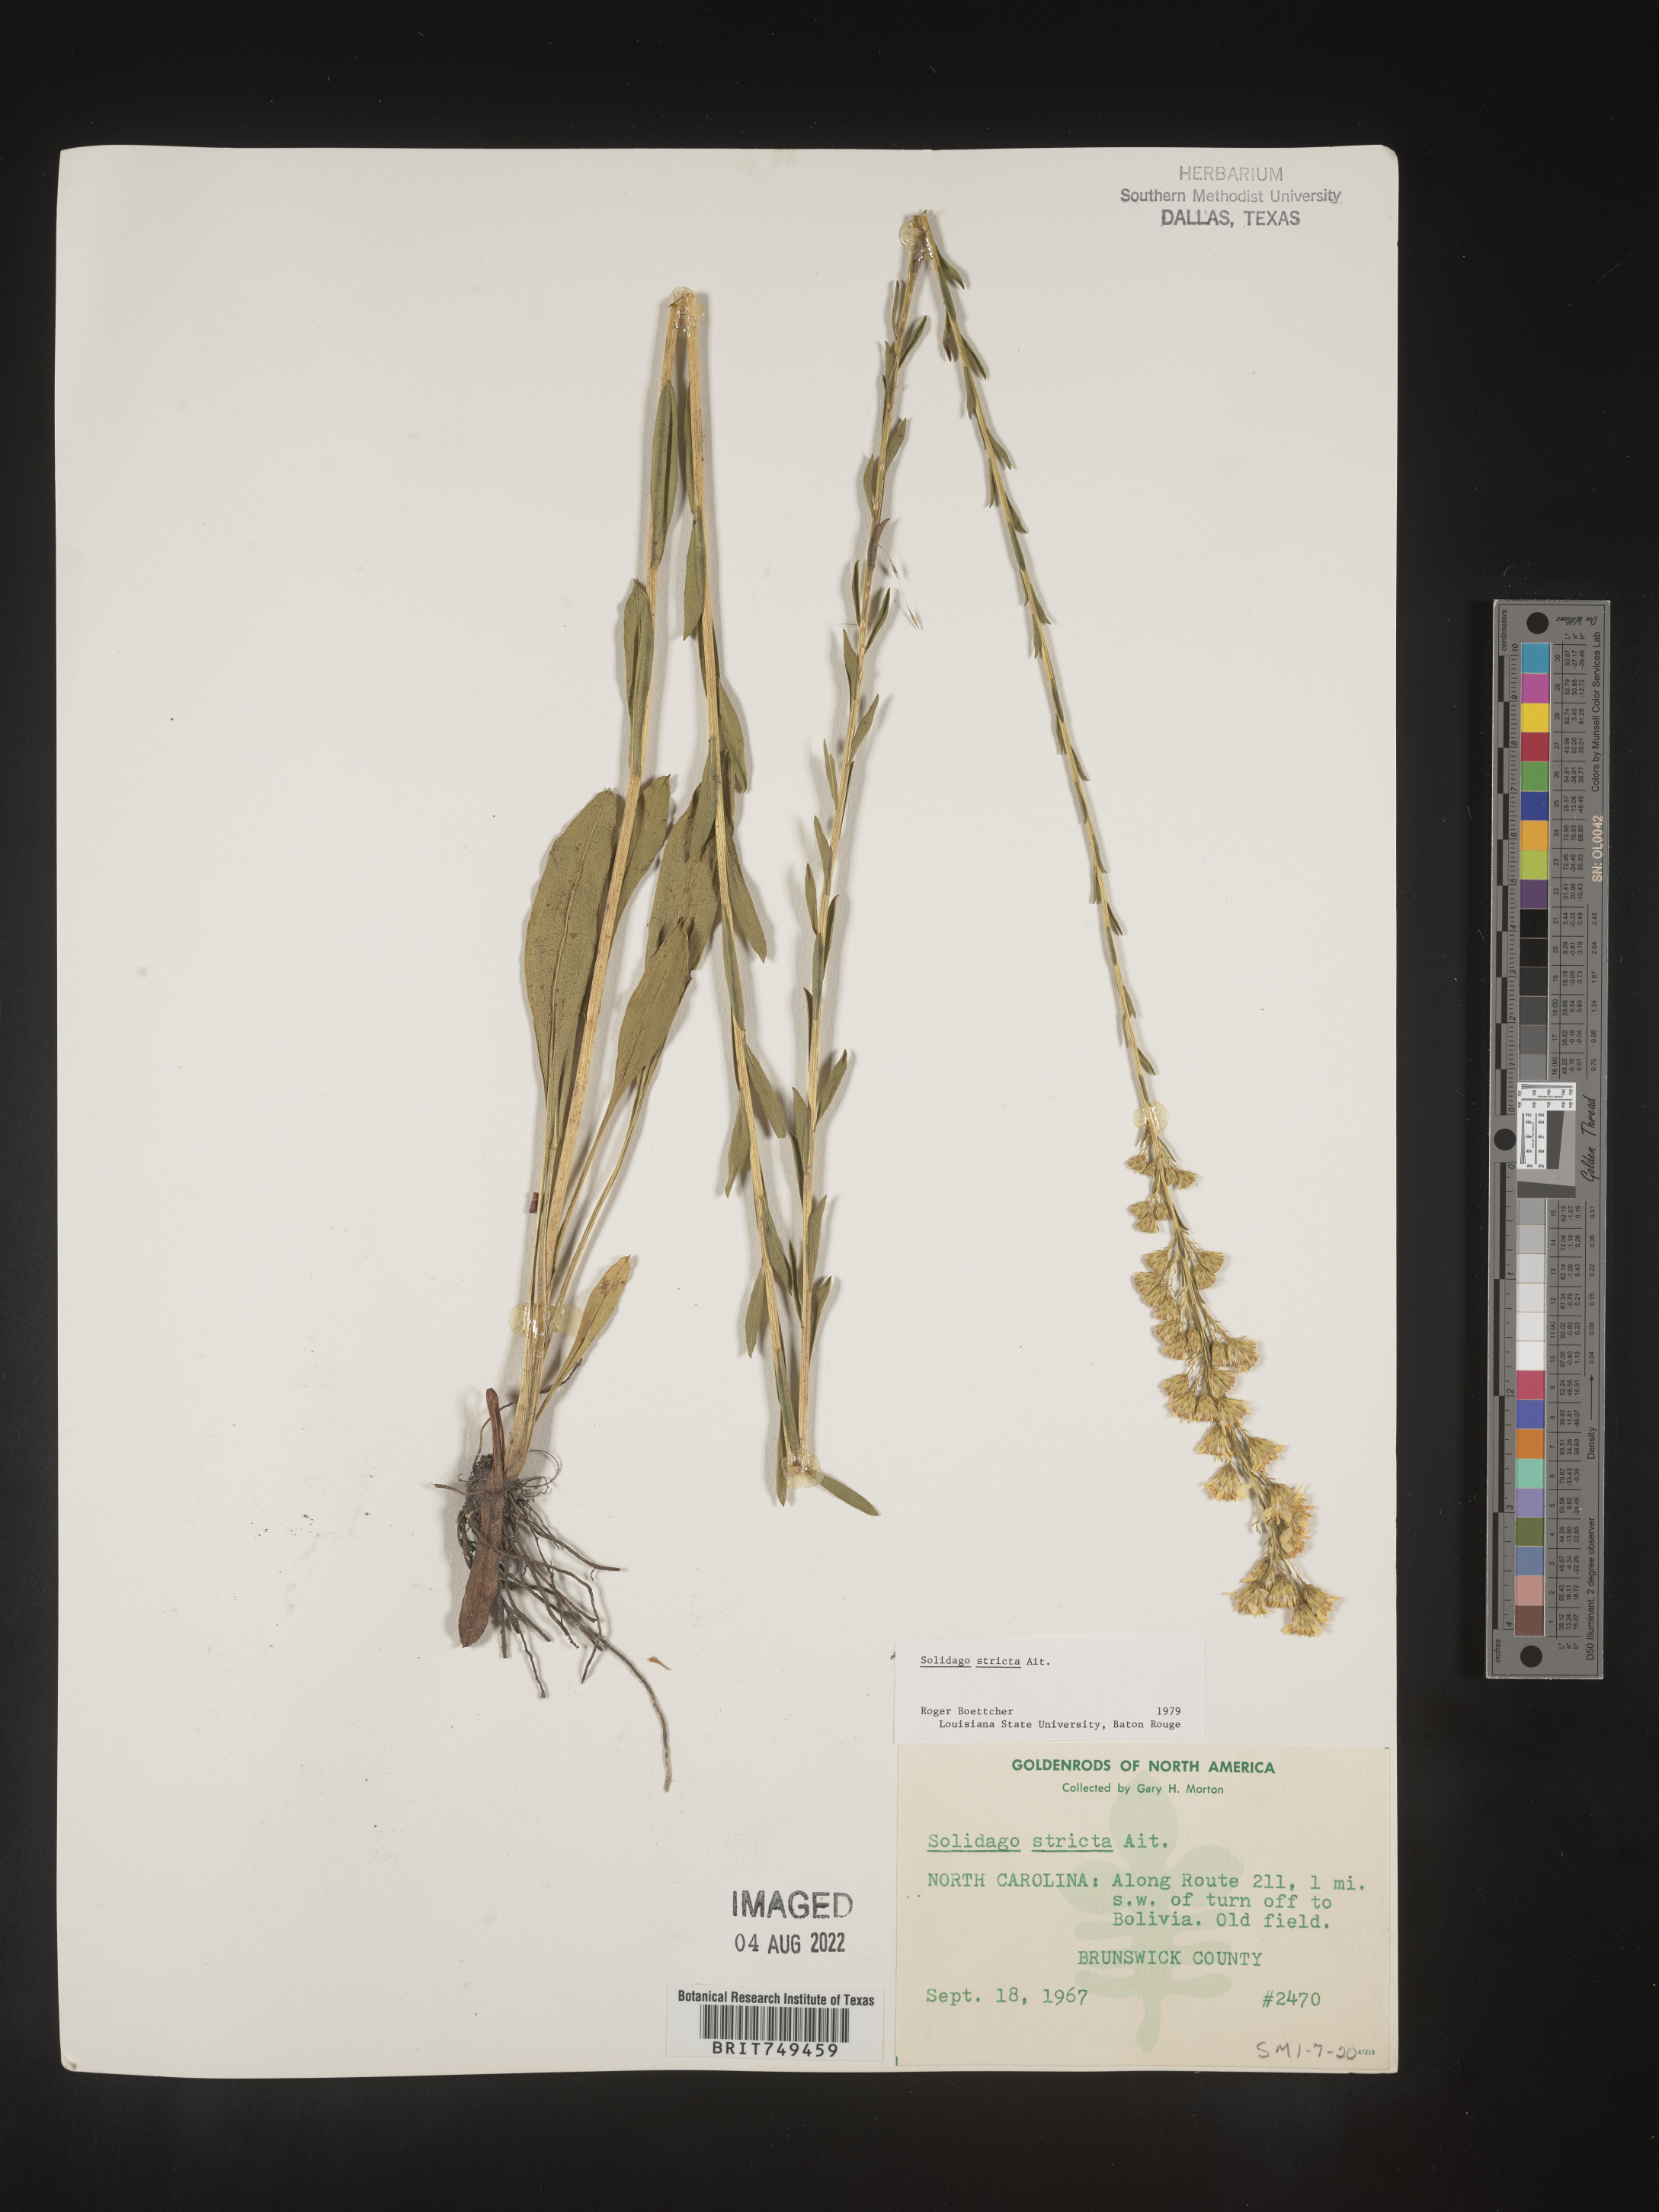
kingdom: Plantae
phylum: Tracheophyta
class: Magnoliopsida
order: Asterales
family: Asteraceae
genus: Solidago
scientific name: Solidago stricta
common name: Pine barren bog goldenrod
